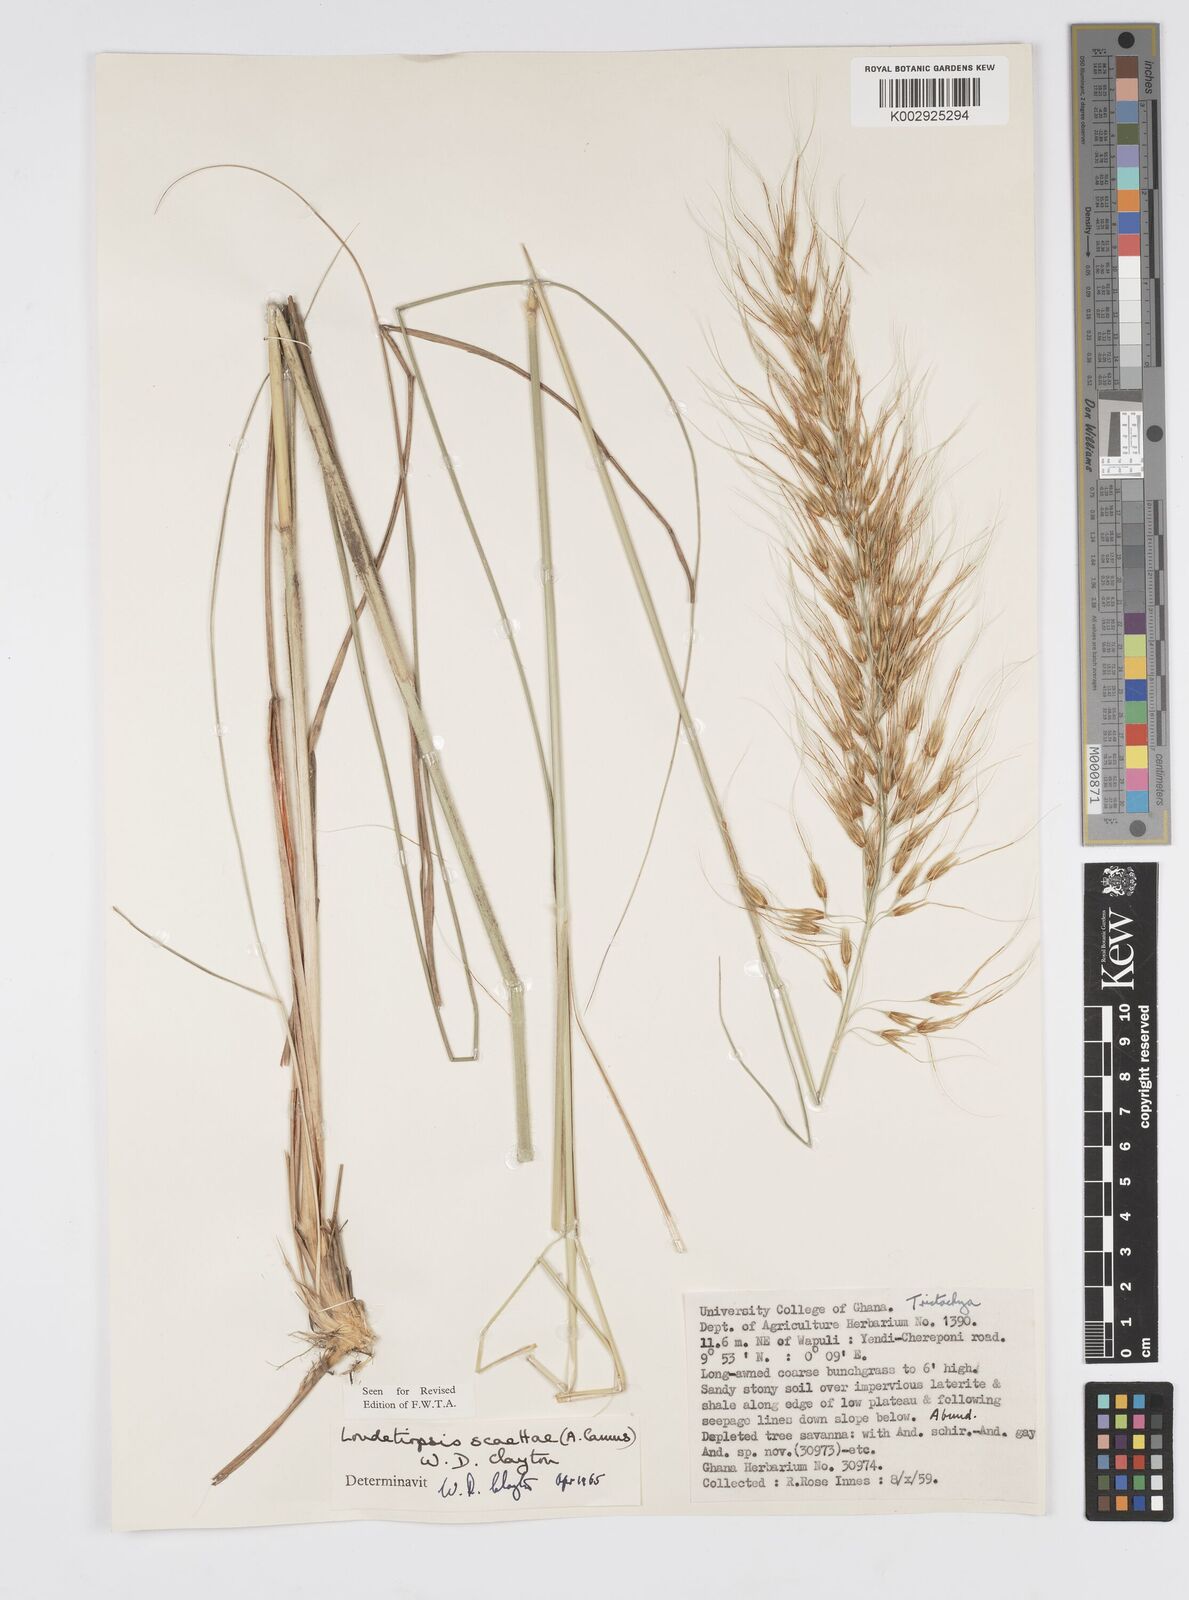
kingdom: Plantae
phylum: Tracheophyta
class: Liliopsida
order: Poales
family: Poaceae
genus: Loudetiopsis
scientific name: Loudetiopsis scaettae
